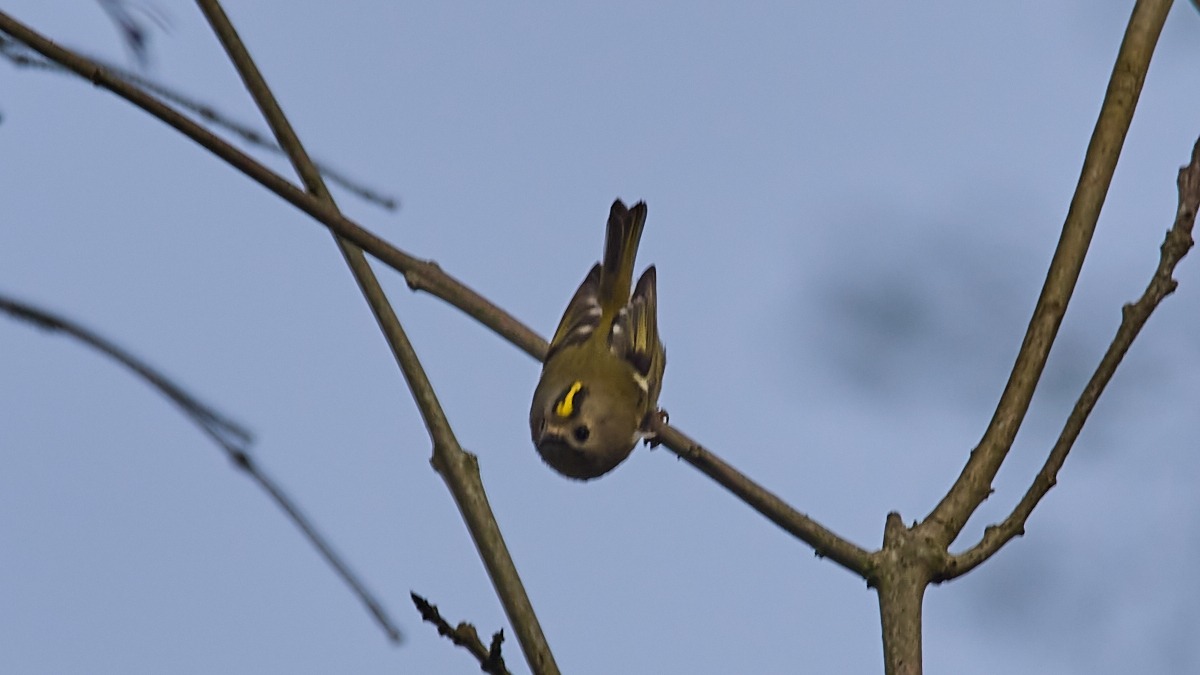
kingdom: Animalia
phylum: Chordata
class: Aves
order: Passeriformes
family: Regulidae
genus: Regulus
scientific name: Regulus regulus
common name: Fuglekonge
